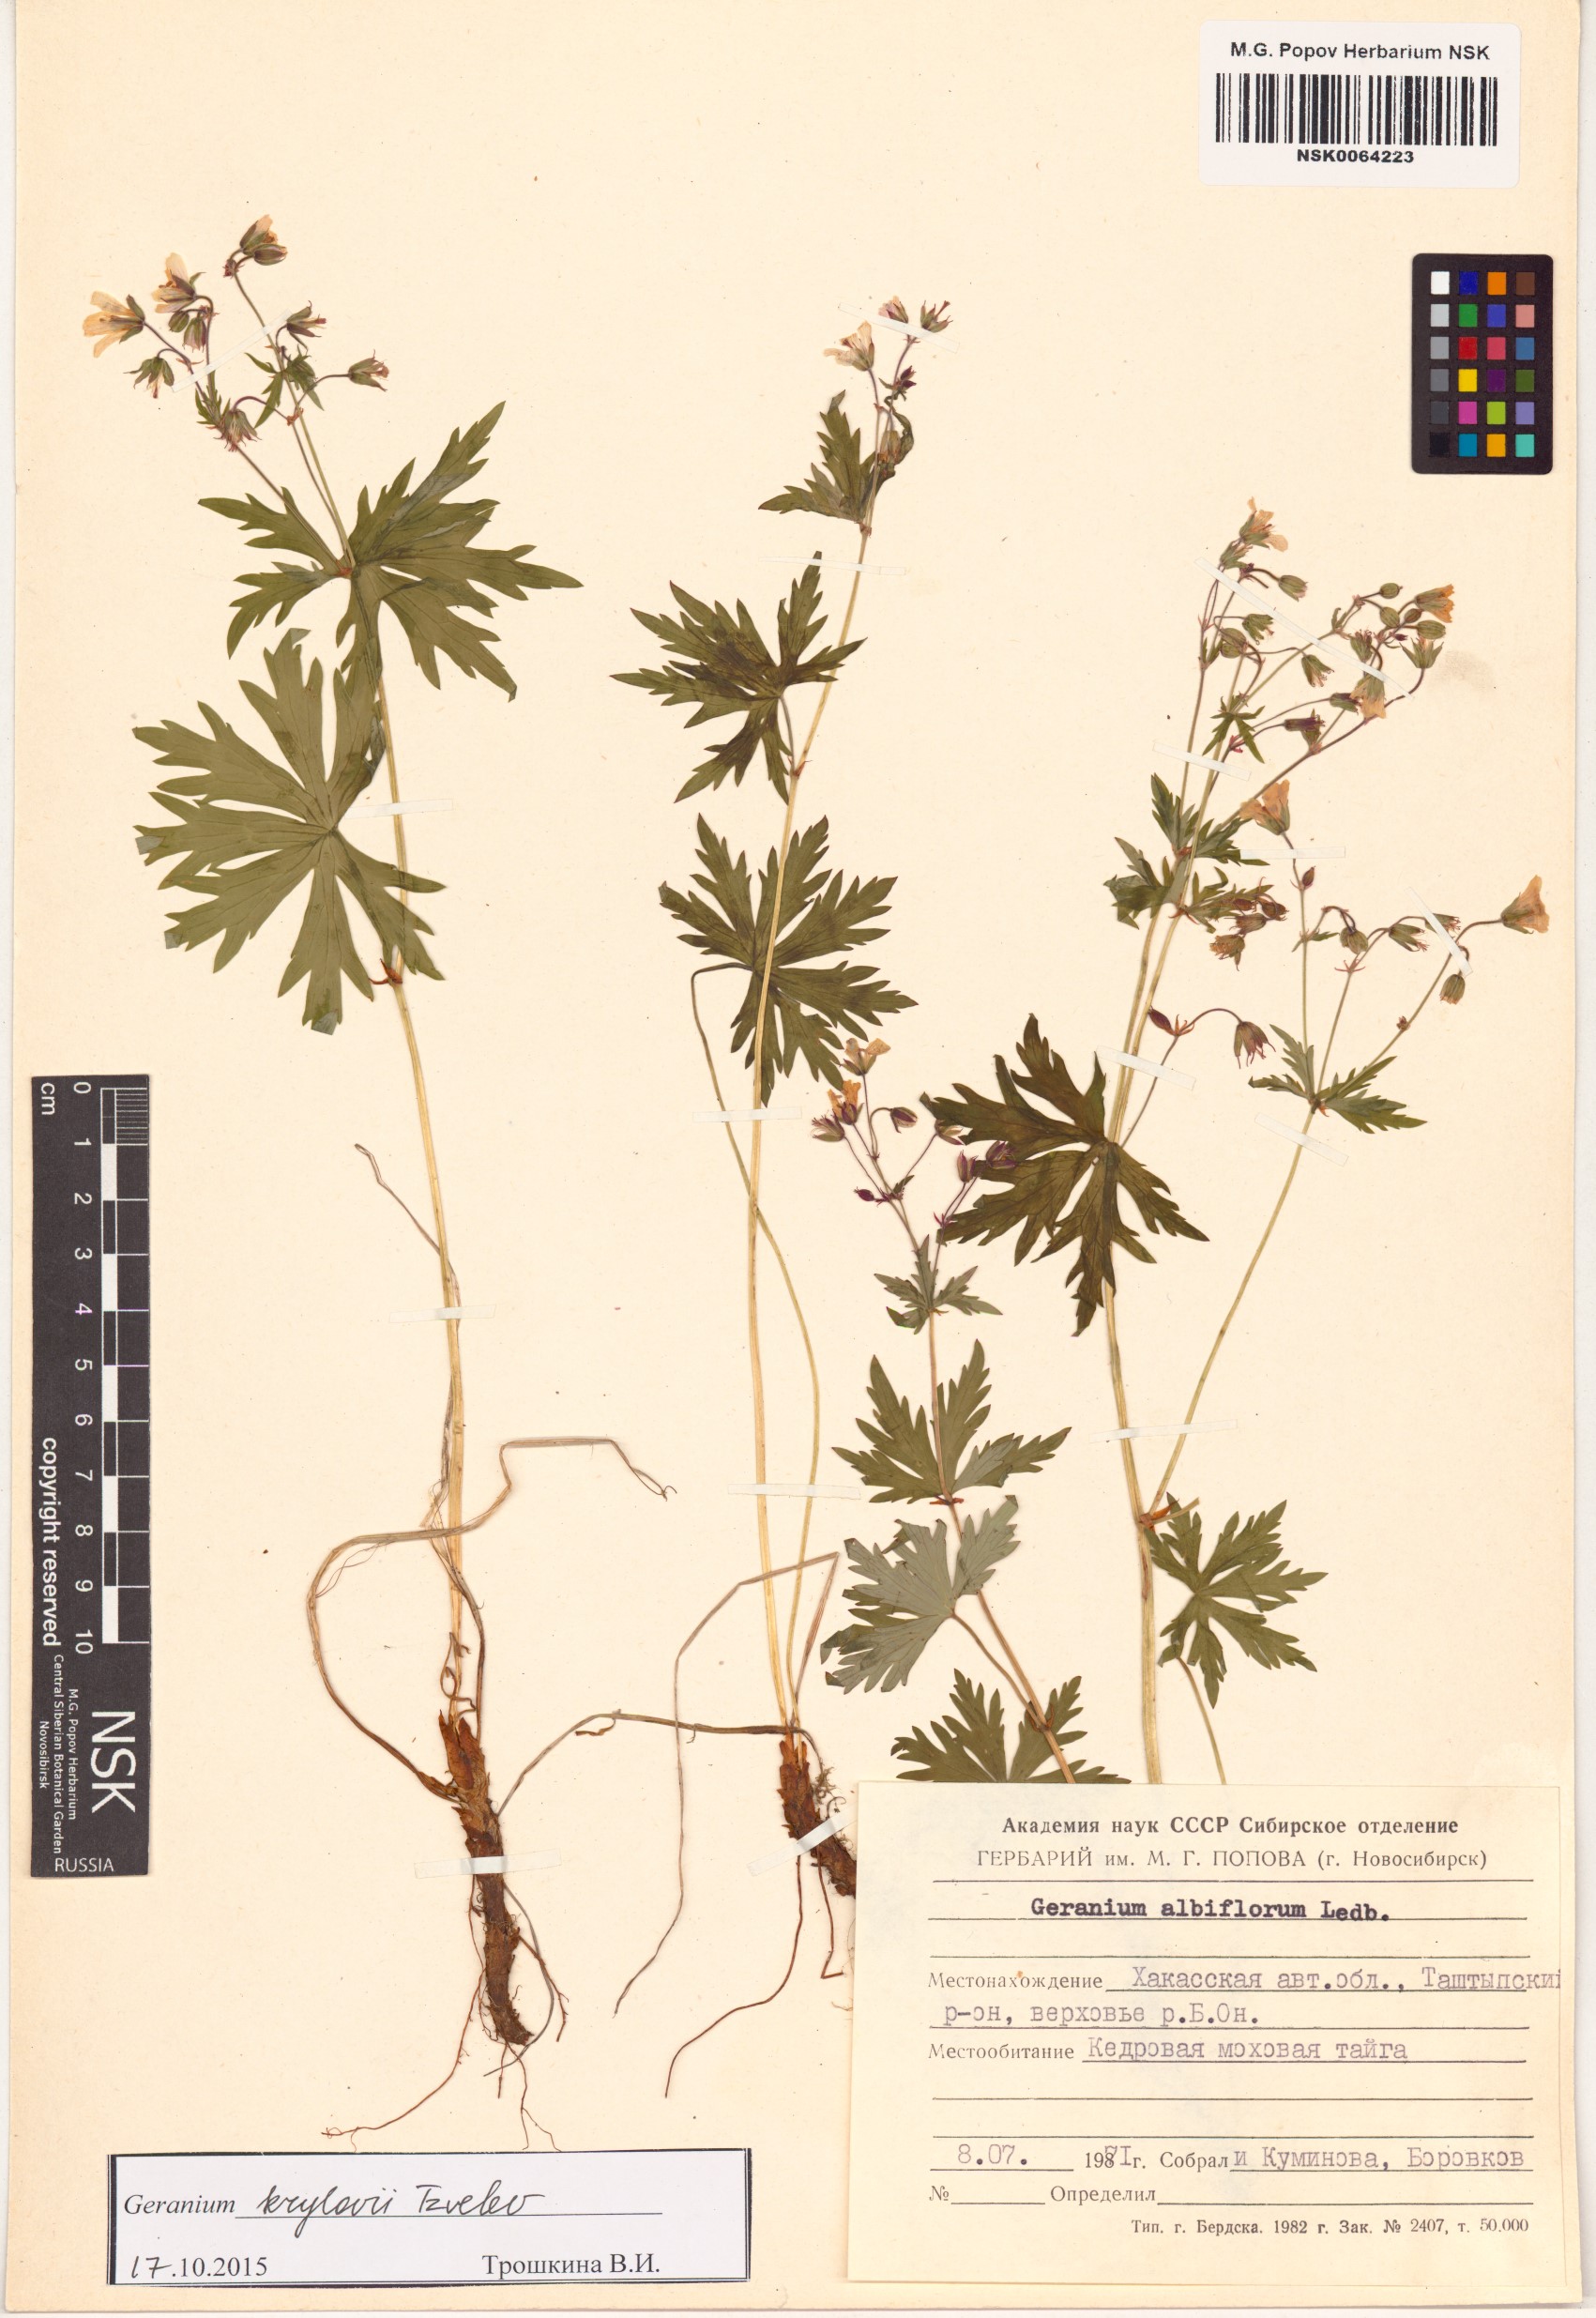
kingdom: Plantae
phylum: Tracheophyta
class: Magnoliopsida
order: Geraniales
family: Geraniaceae
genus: Geranium
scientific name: Geranium sylvaticum
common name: Wood crane's-bill
